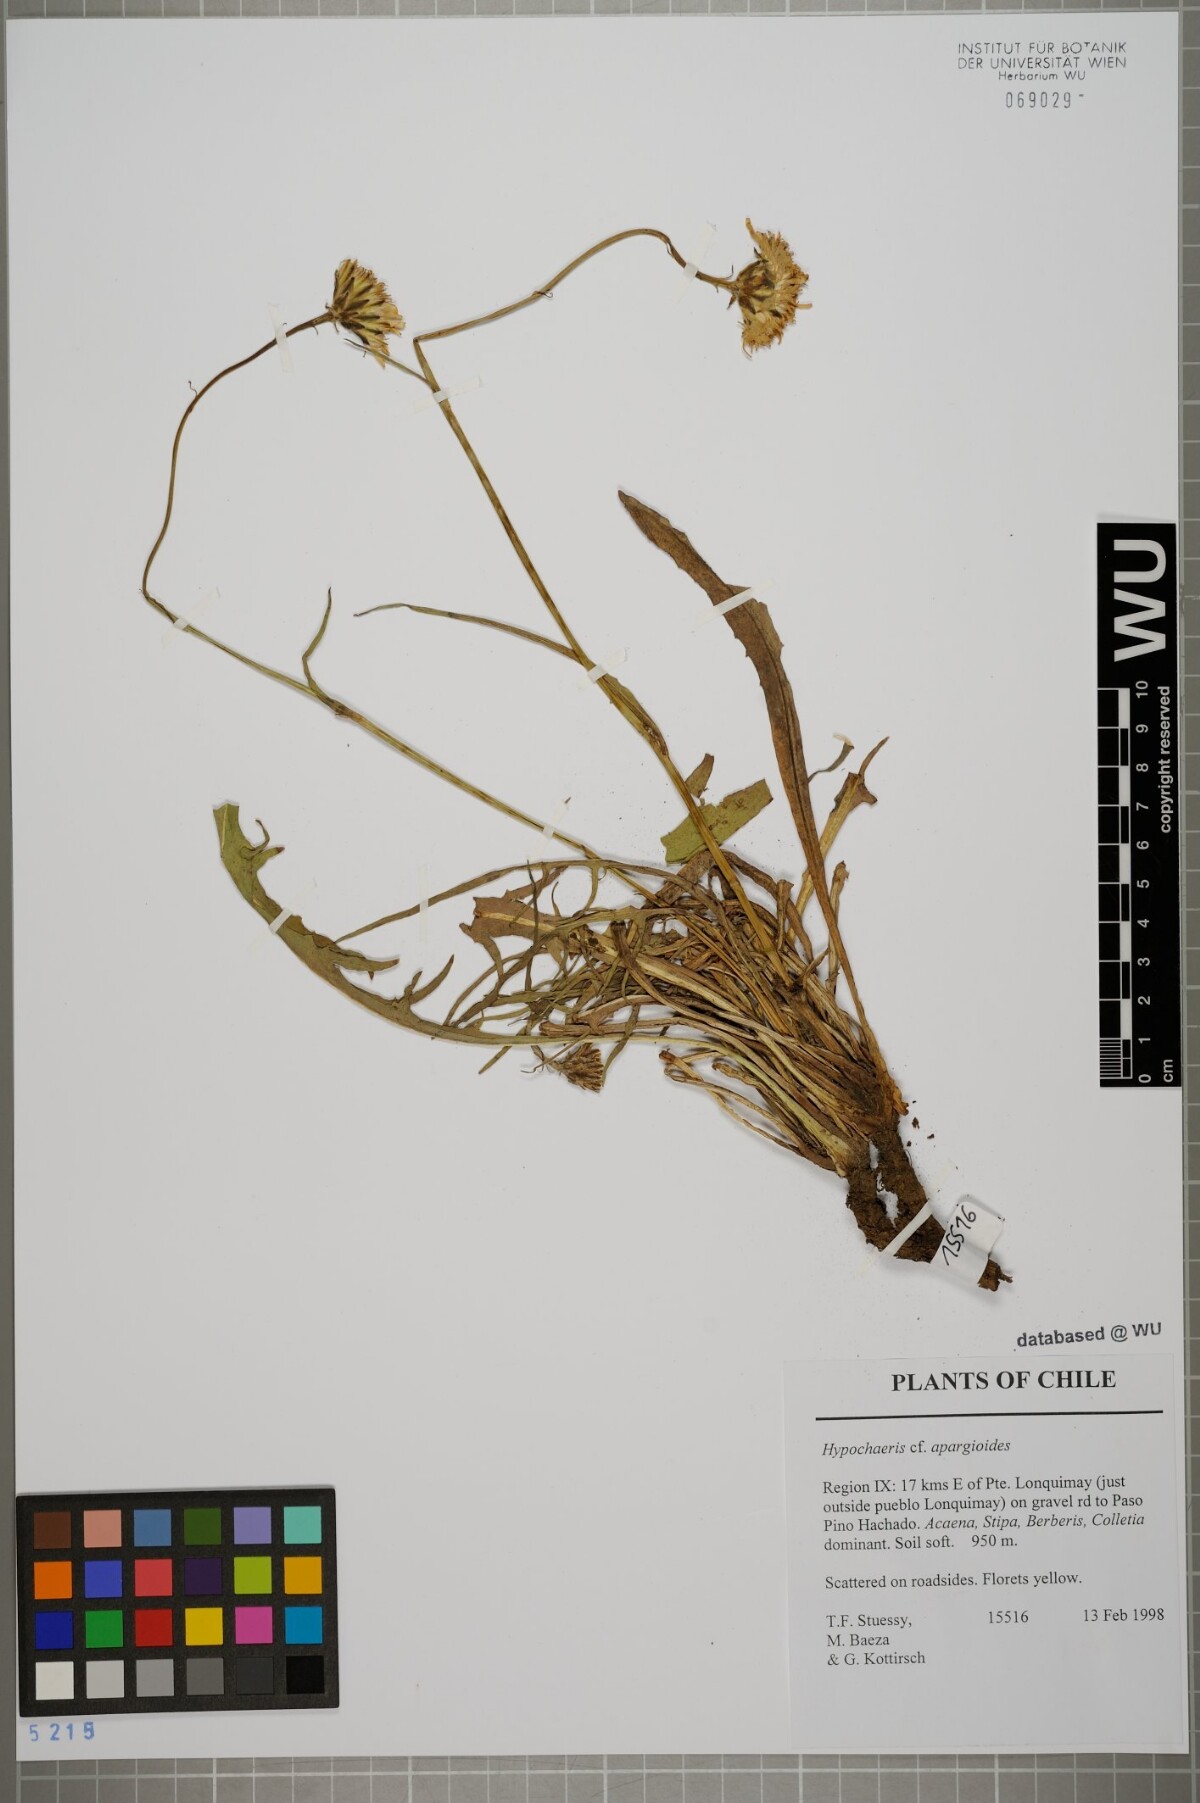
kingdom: Plantae
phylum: Tracheophyta
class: Magnoliopsida
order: Asterales
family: Asteraceae
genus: Hypochaeris
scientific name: Hypochaeris apargioides
